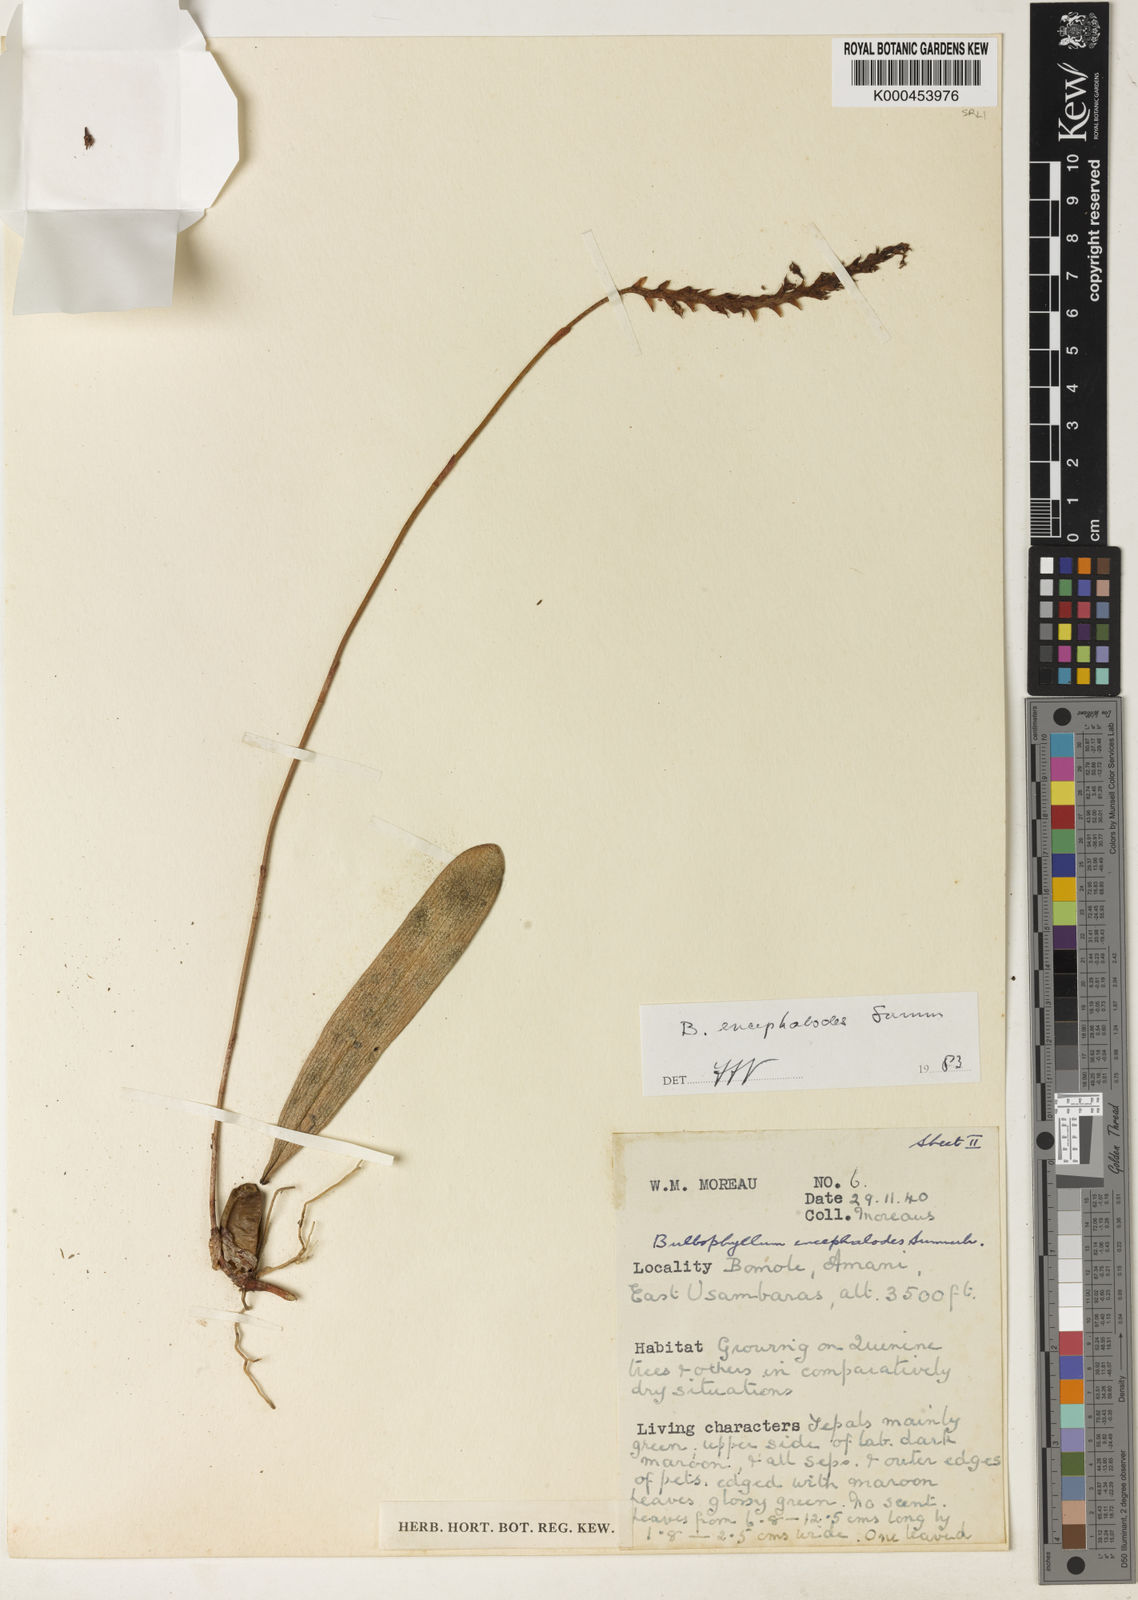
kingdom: Plantae
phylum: Tracheophyta
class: Liliopsida
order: Asparagales
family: Orchidaceae
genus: Bulbophyllum
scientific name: Bulbophyllum encephalodes
